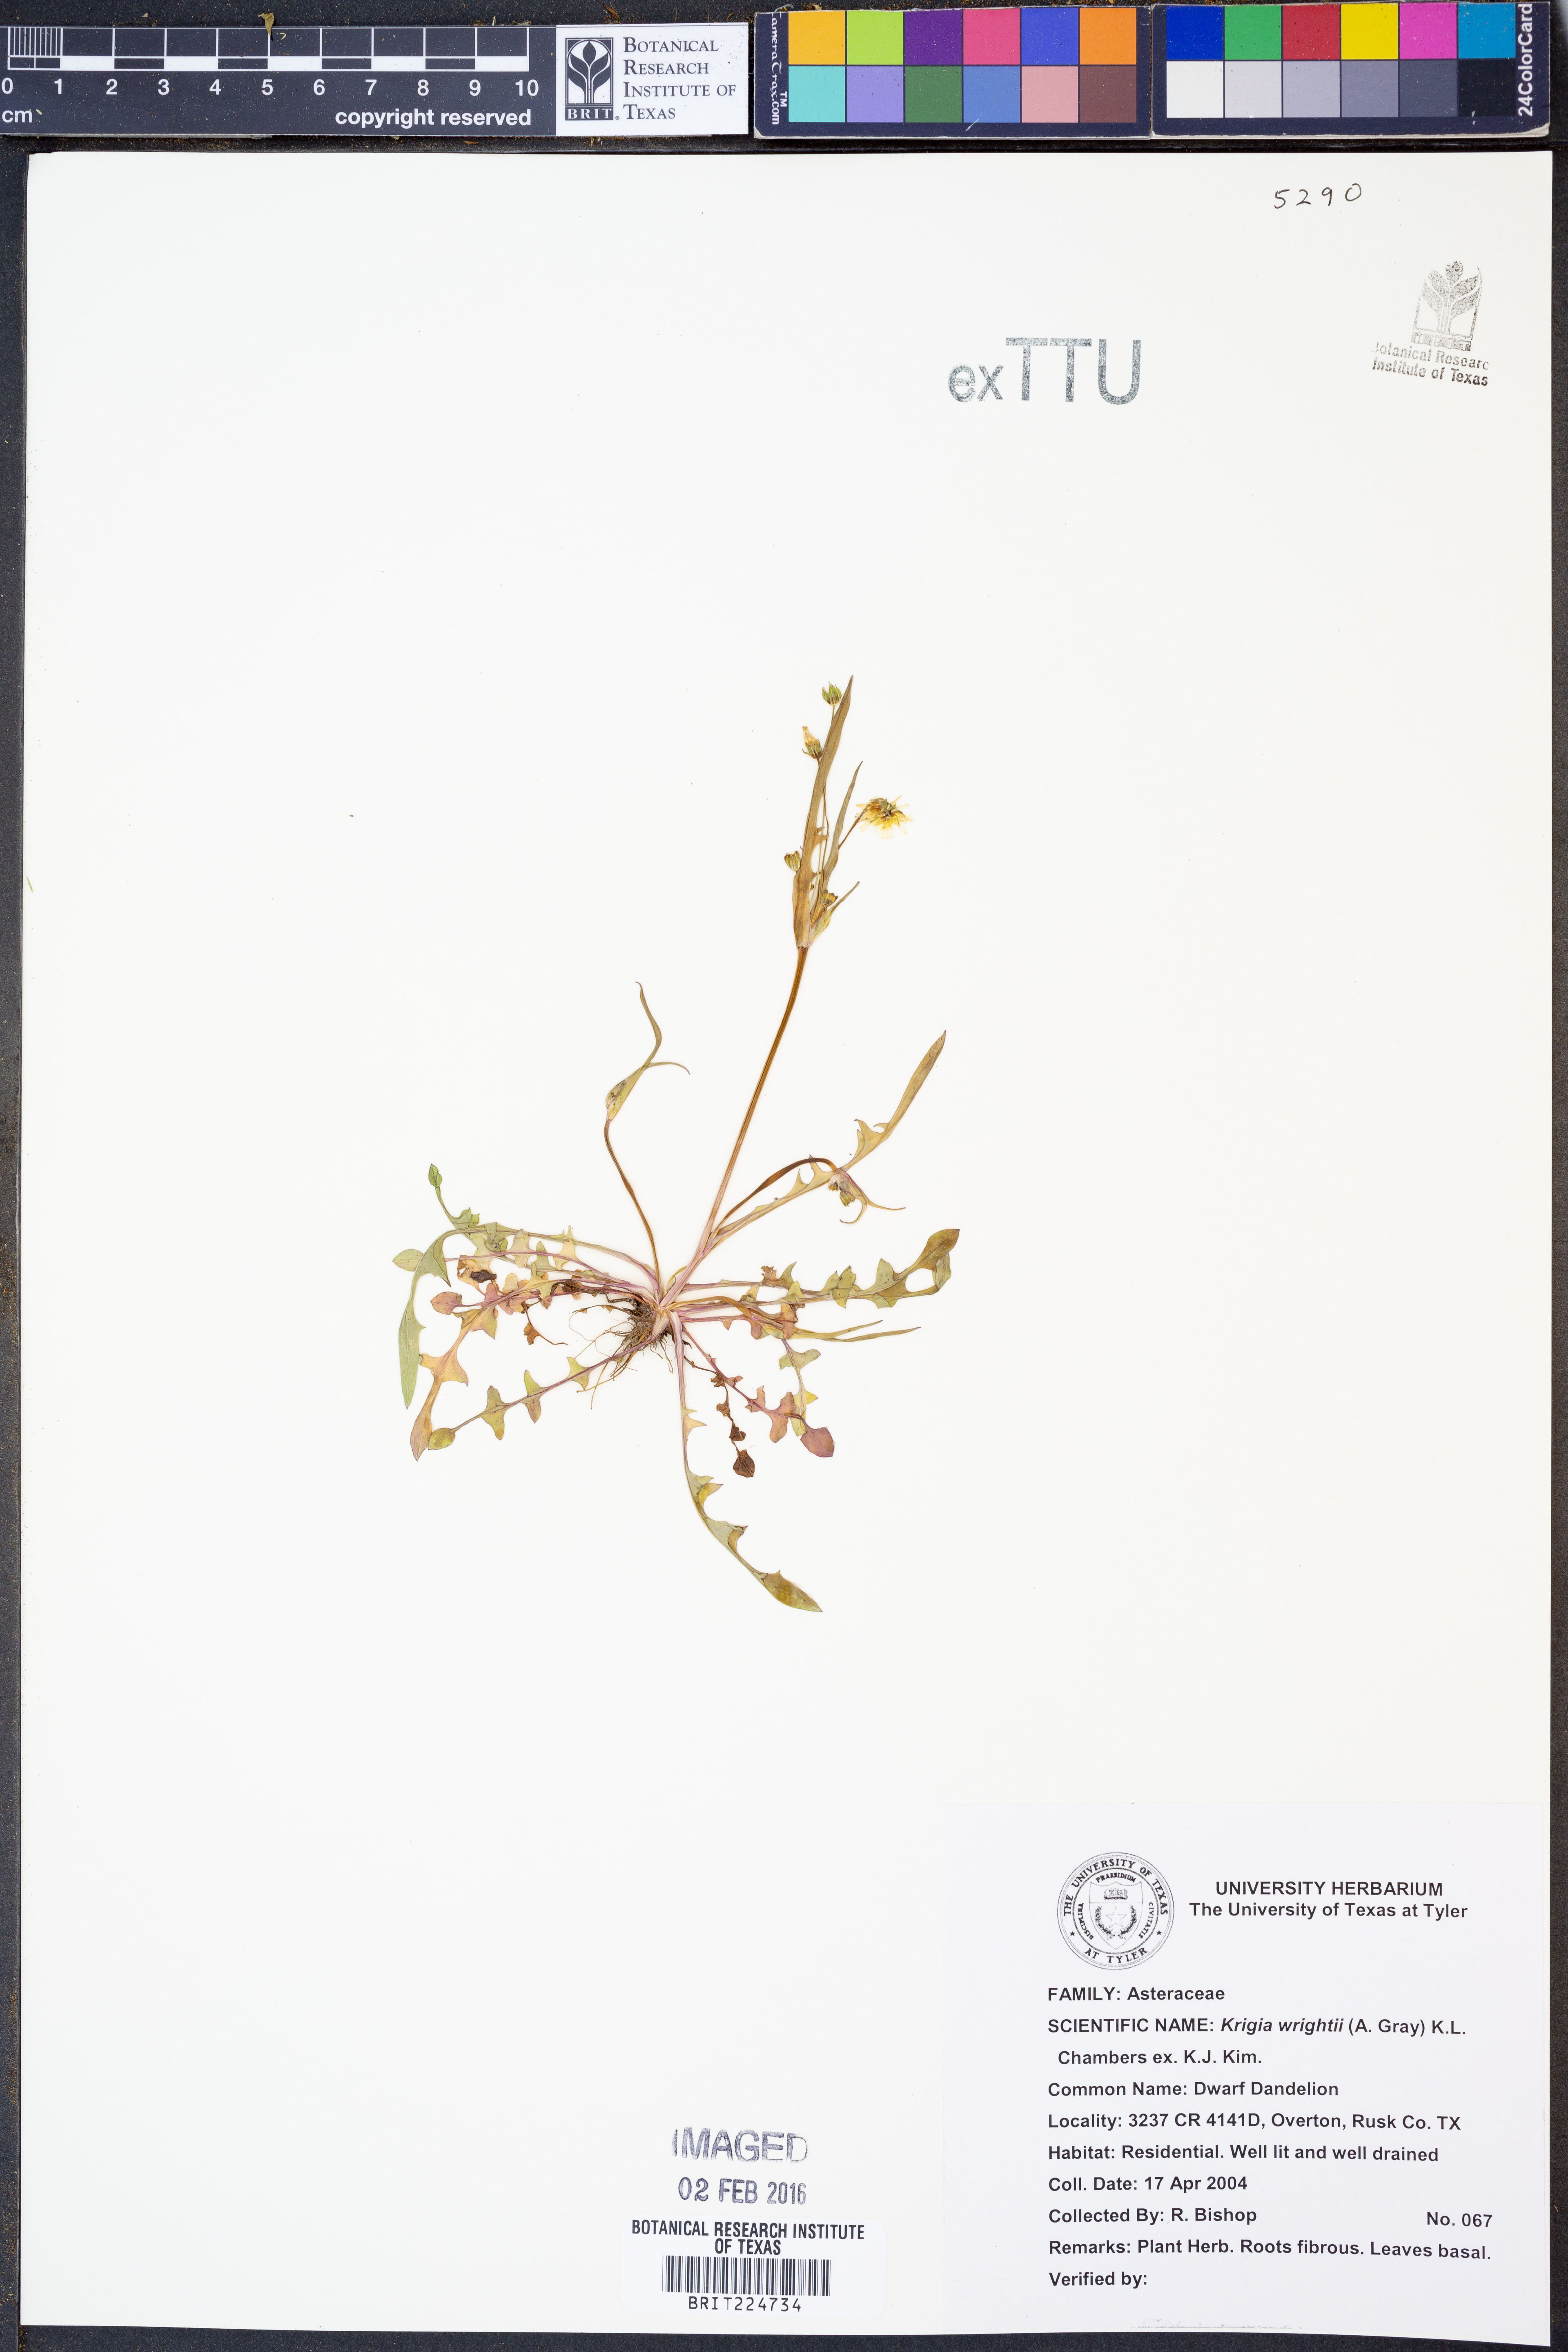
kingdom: Plantae
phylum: Tracheophyta
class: Magnoliopsida
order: Asterales
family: Asteraceae
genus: Krigia
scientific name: Krigia wrightii
